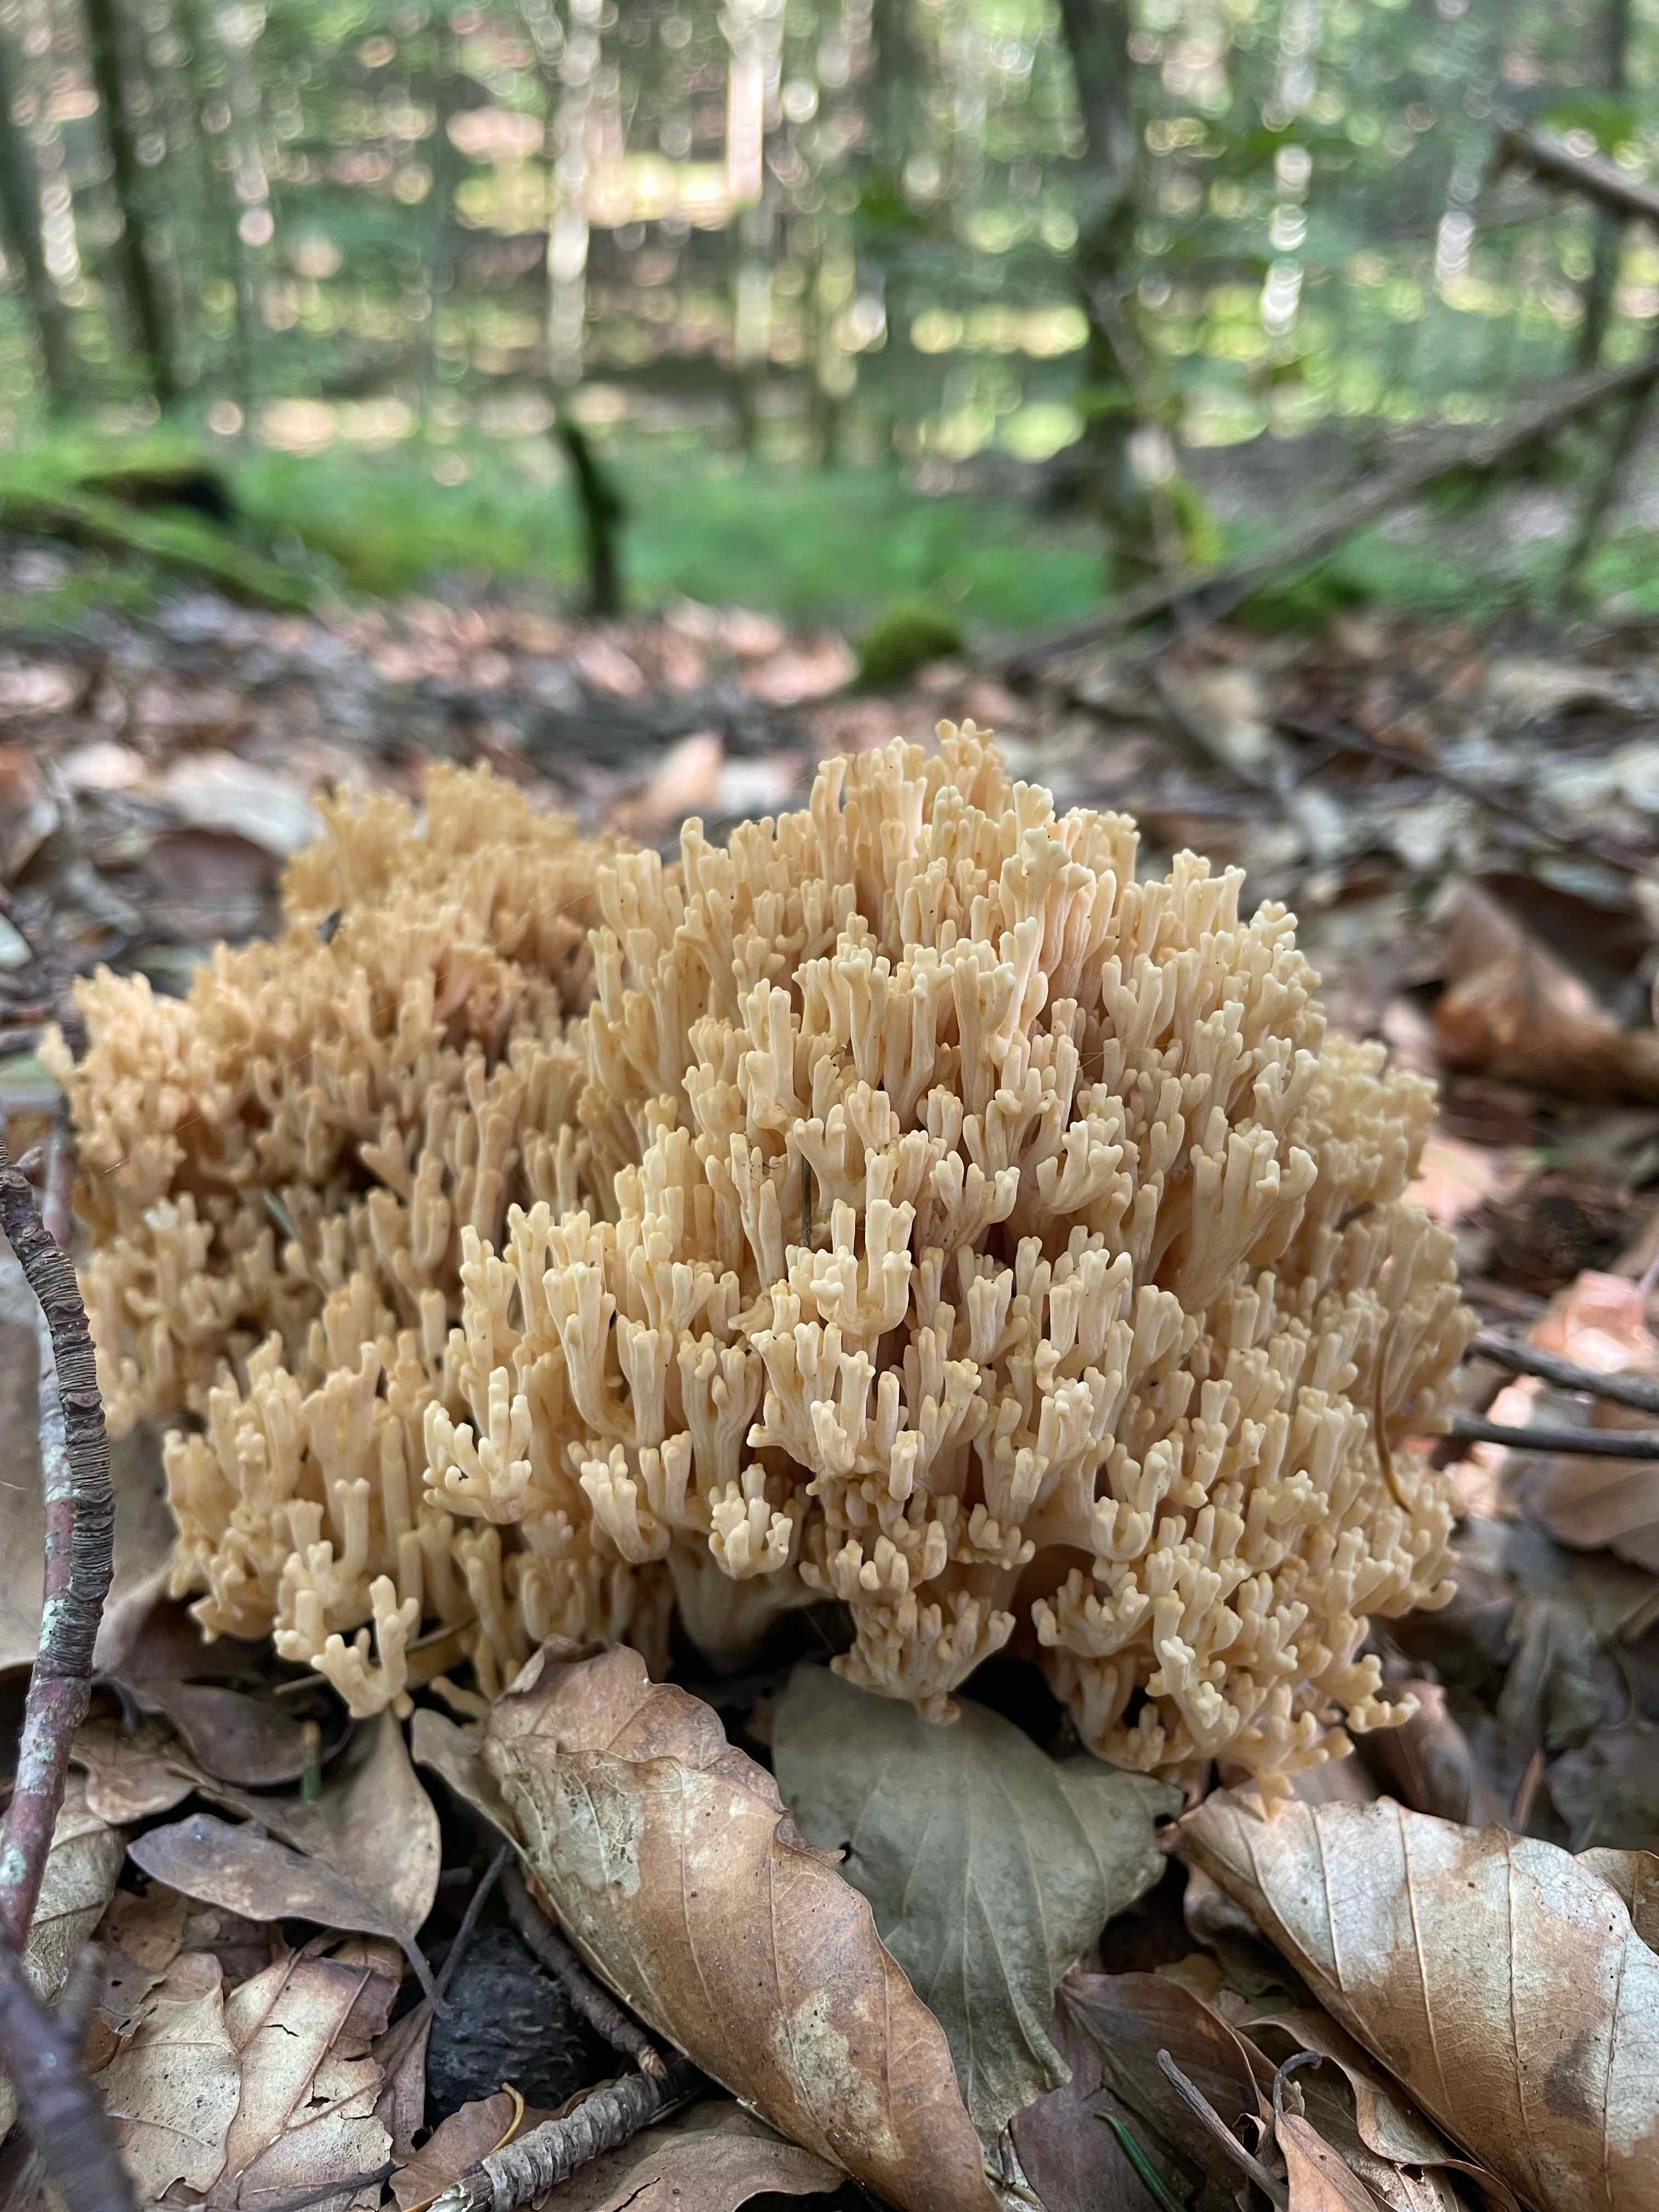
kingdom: Fungi
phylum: Basidiomycota
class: Agaricomycetes
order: Gomphales
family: Gomphaceae
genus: Ramaria
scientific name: Ramaria
